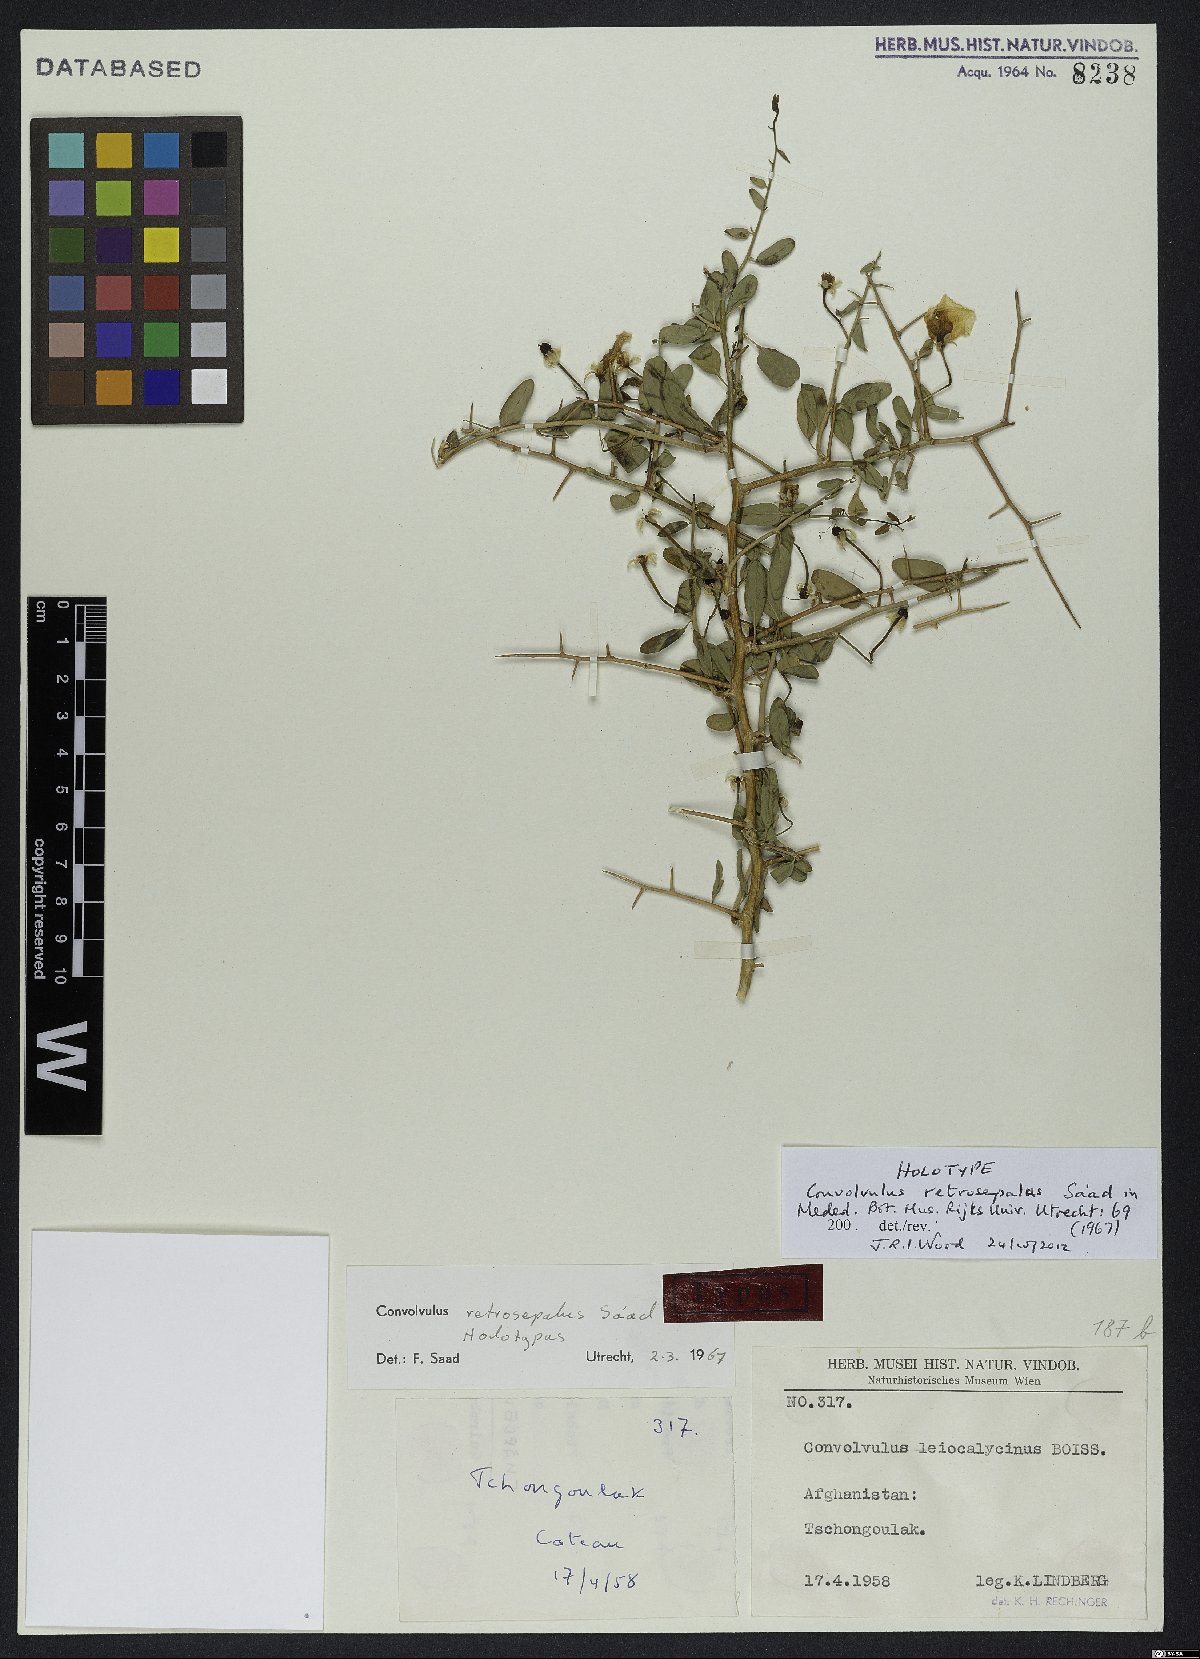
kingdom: Plantae
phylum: Tracheophyta
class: Magnoliopsida
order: Solanales
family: Convolvulaceae
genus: Convolvulus
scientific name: Convolvulus leiocalycinus
